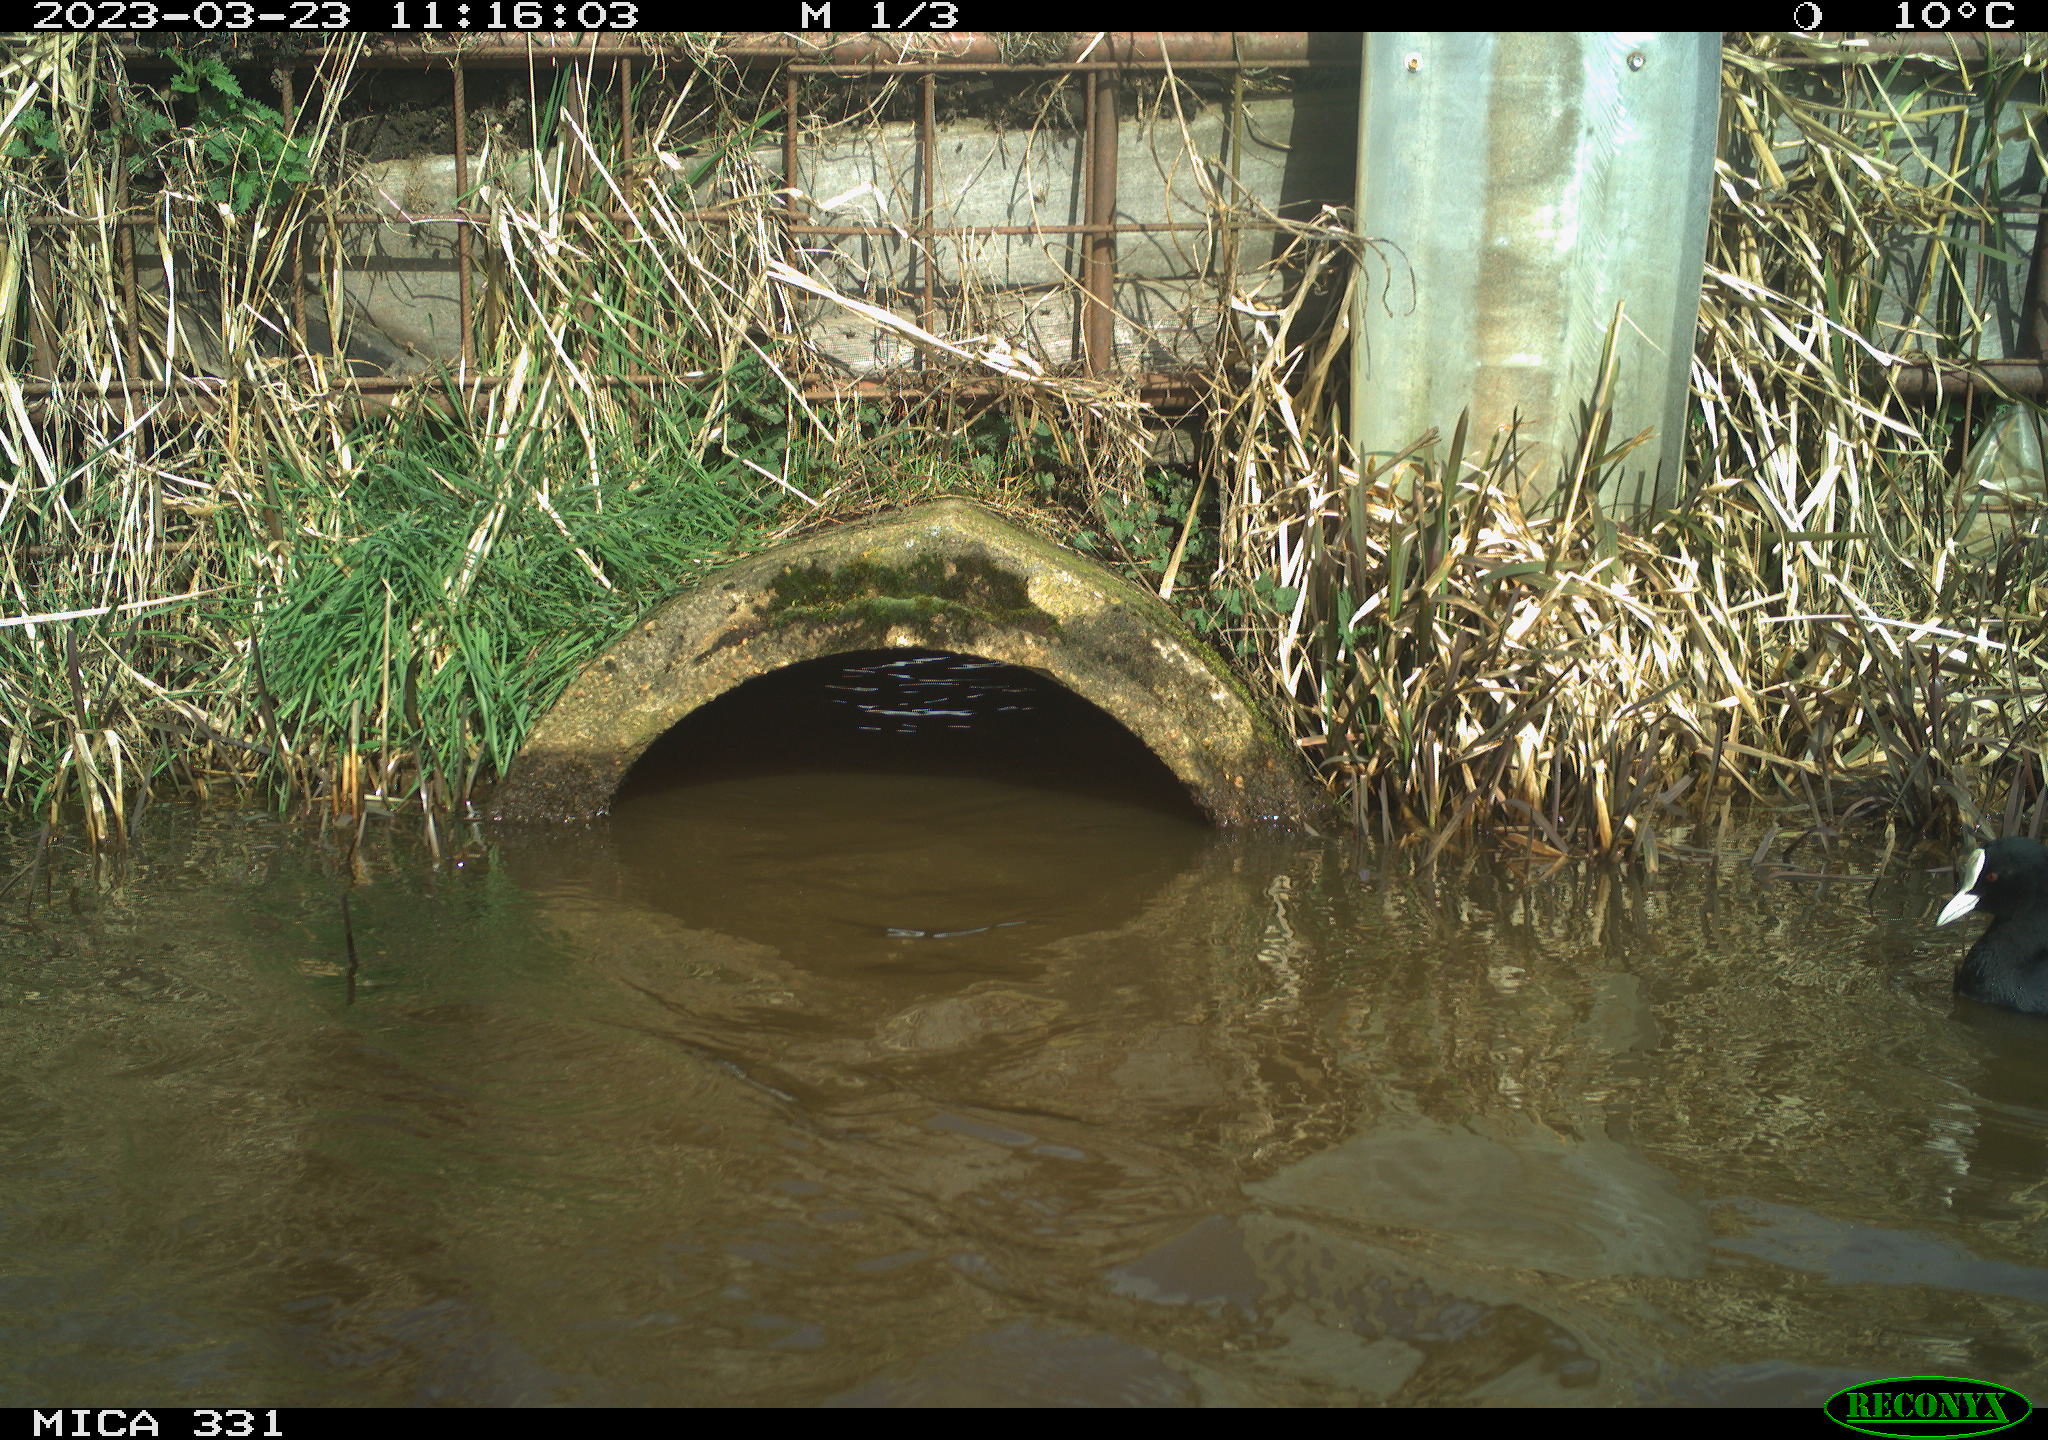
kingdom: Animalia
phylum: Chordata
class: Aves
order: Gruiformes
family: Rallidae
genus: Fulica
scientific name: Fulica atra
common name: Eurasian coot
